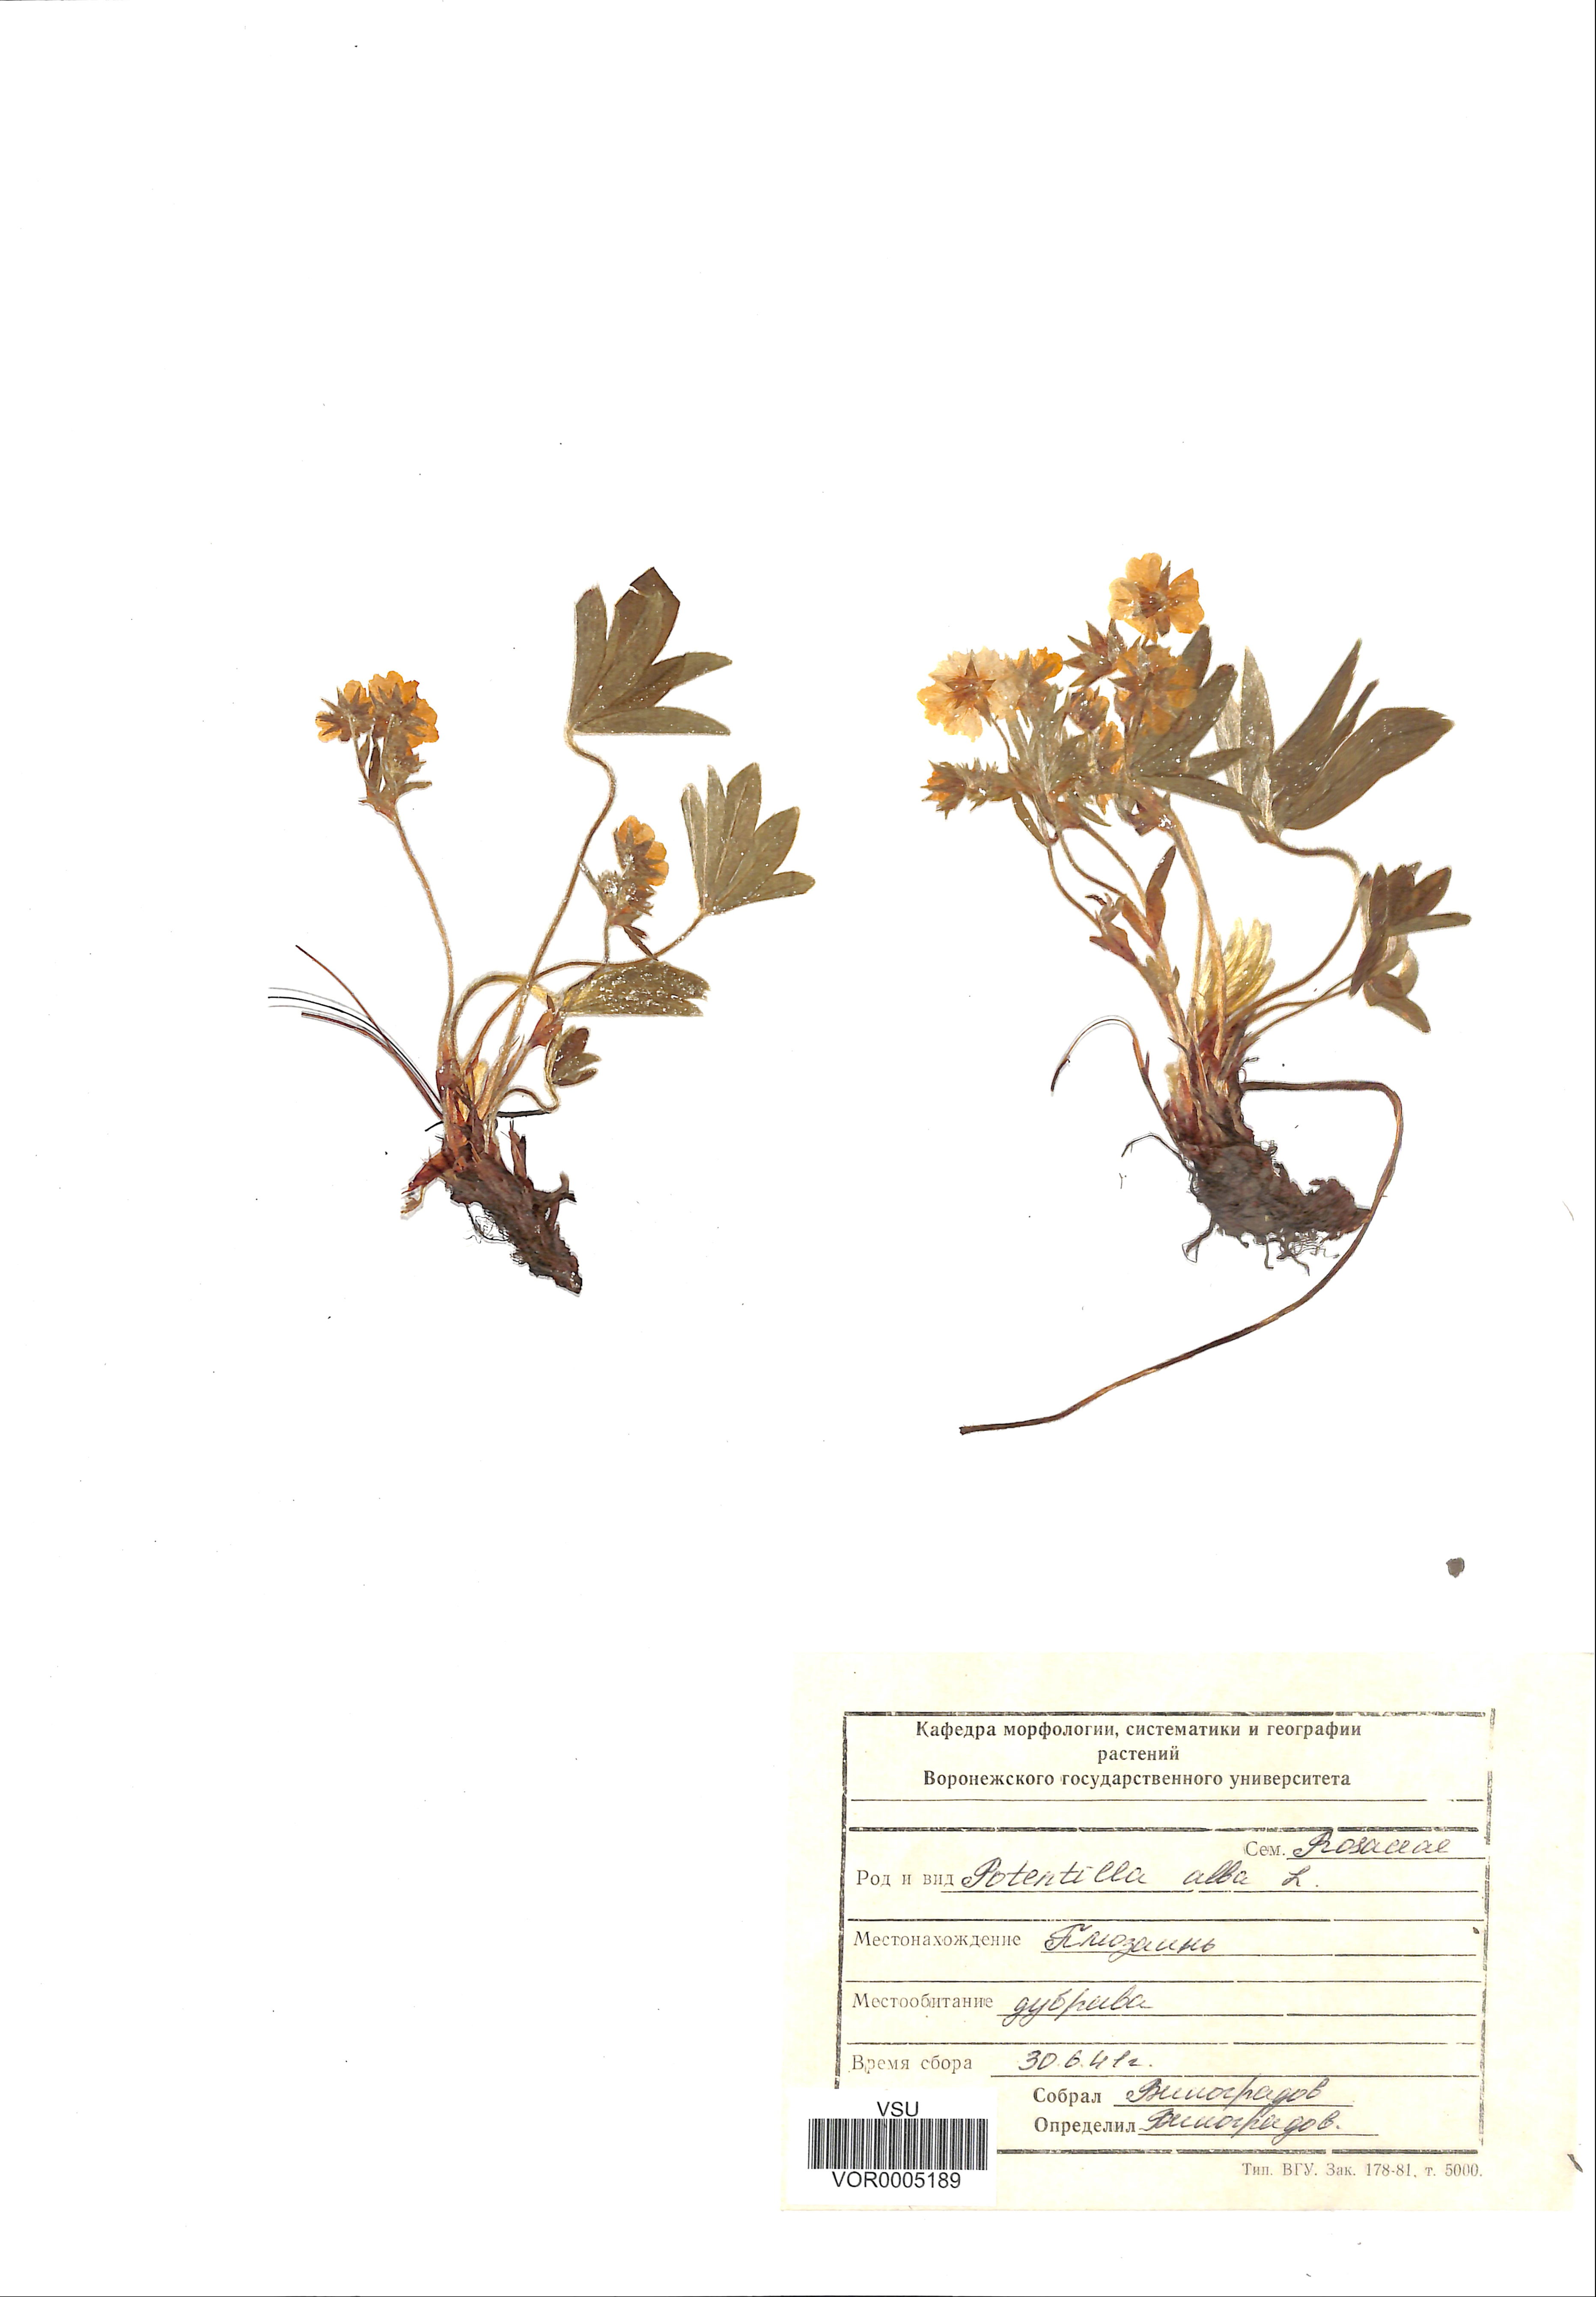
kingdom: Plantae
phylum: Tracheophyta
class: Magnoliopsida
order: Rosales
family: Rosaceae
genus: Potentilla
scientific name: Potentilla alba
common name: White cinquefoil
